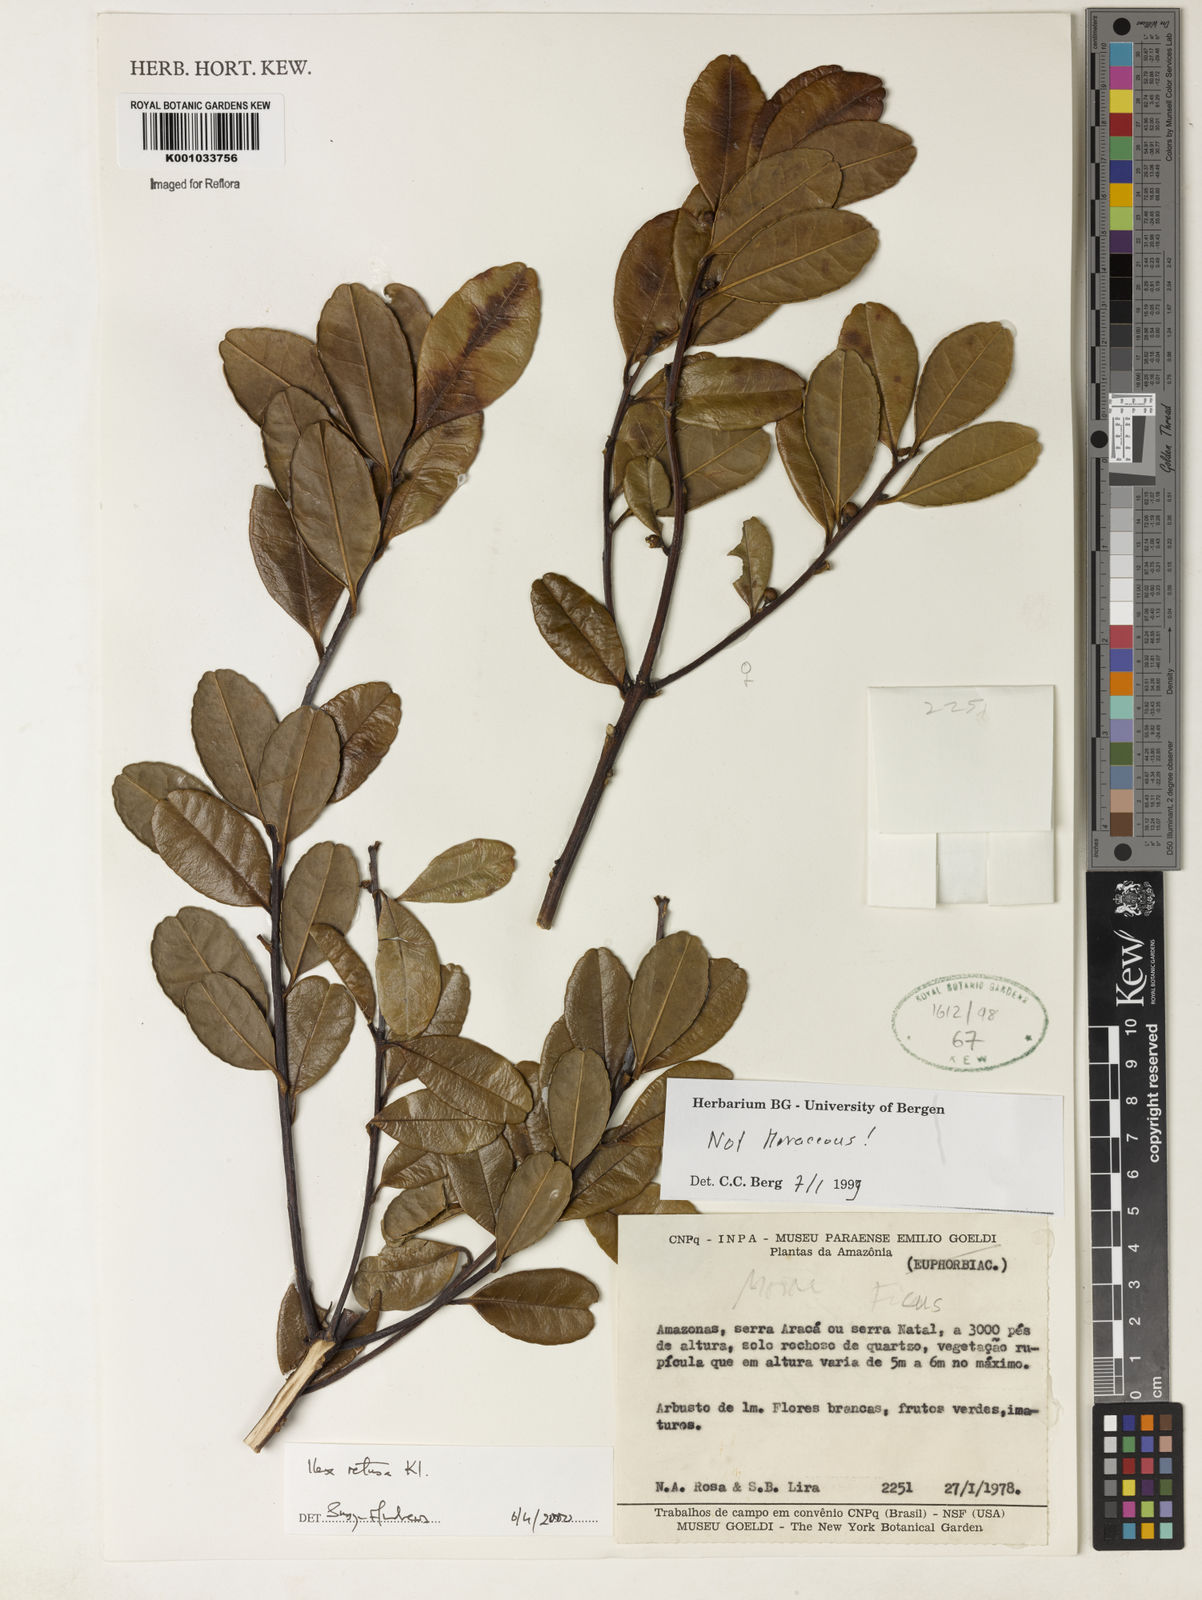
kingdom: Plantae
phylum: Tracheophyta
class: Magnoliopsida
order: Aquifoliales
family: Aquifoliaceae
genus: Ilex
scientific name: Ilex
